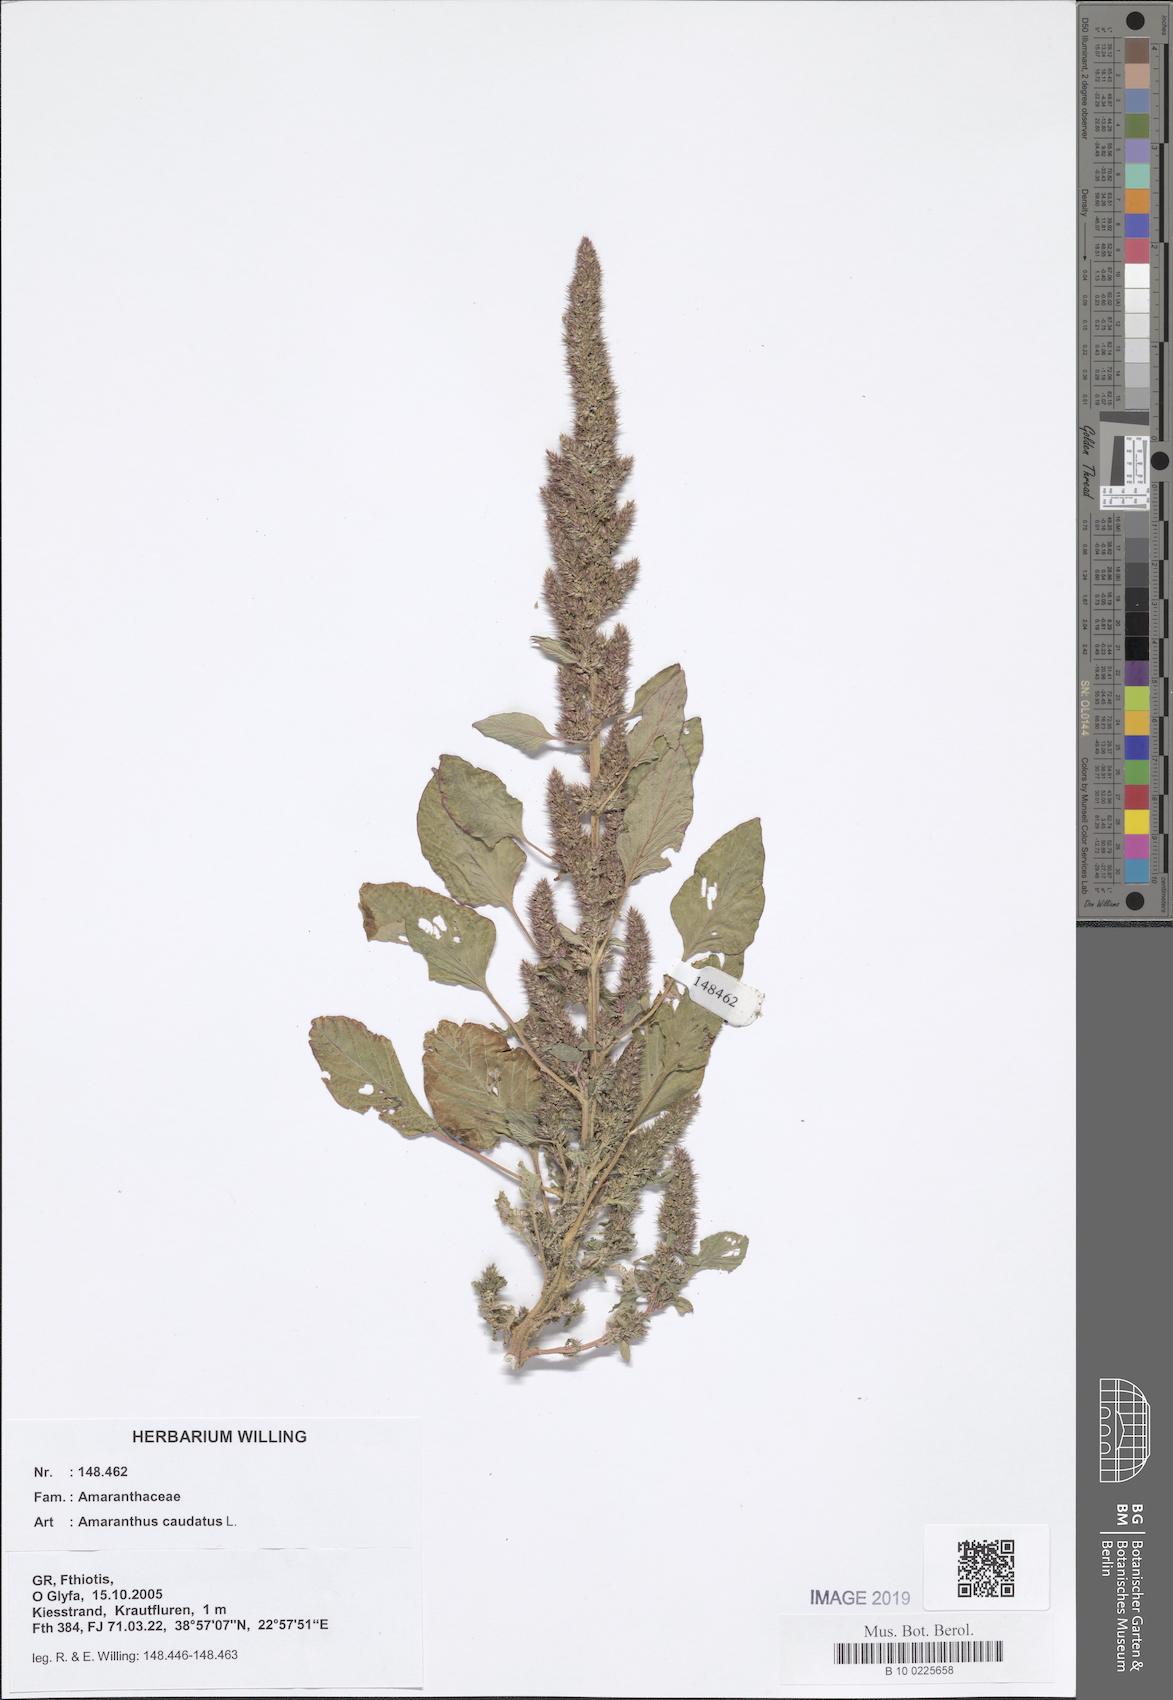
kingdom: Plantae
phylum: Tracheophyta
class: Magnoliopsida
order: Caryophyllales
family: Amaranthaceae
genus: Amaranthus
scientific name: Amaranthus caudatus
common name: Love-lies-bleeding
